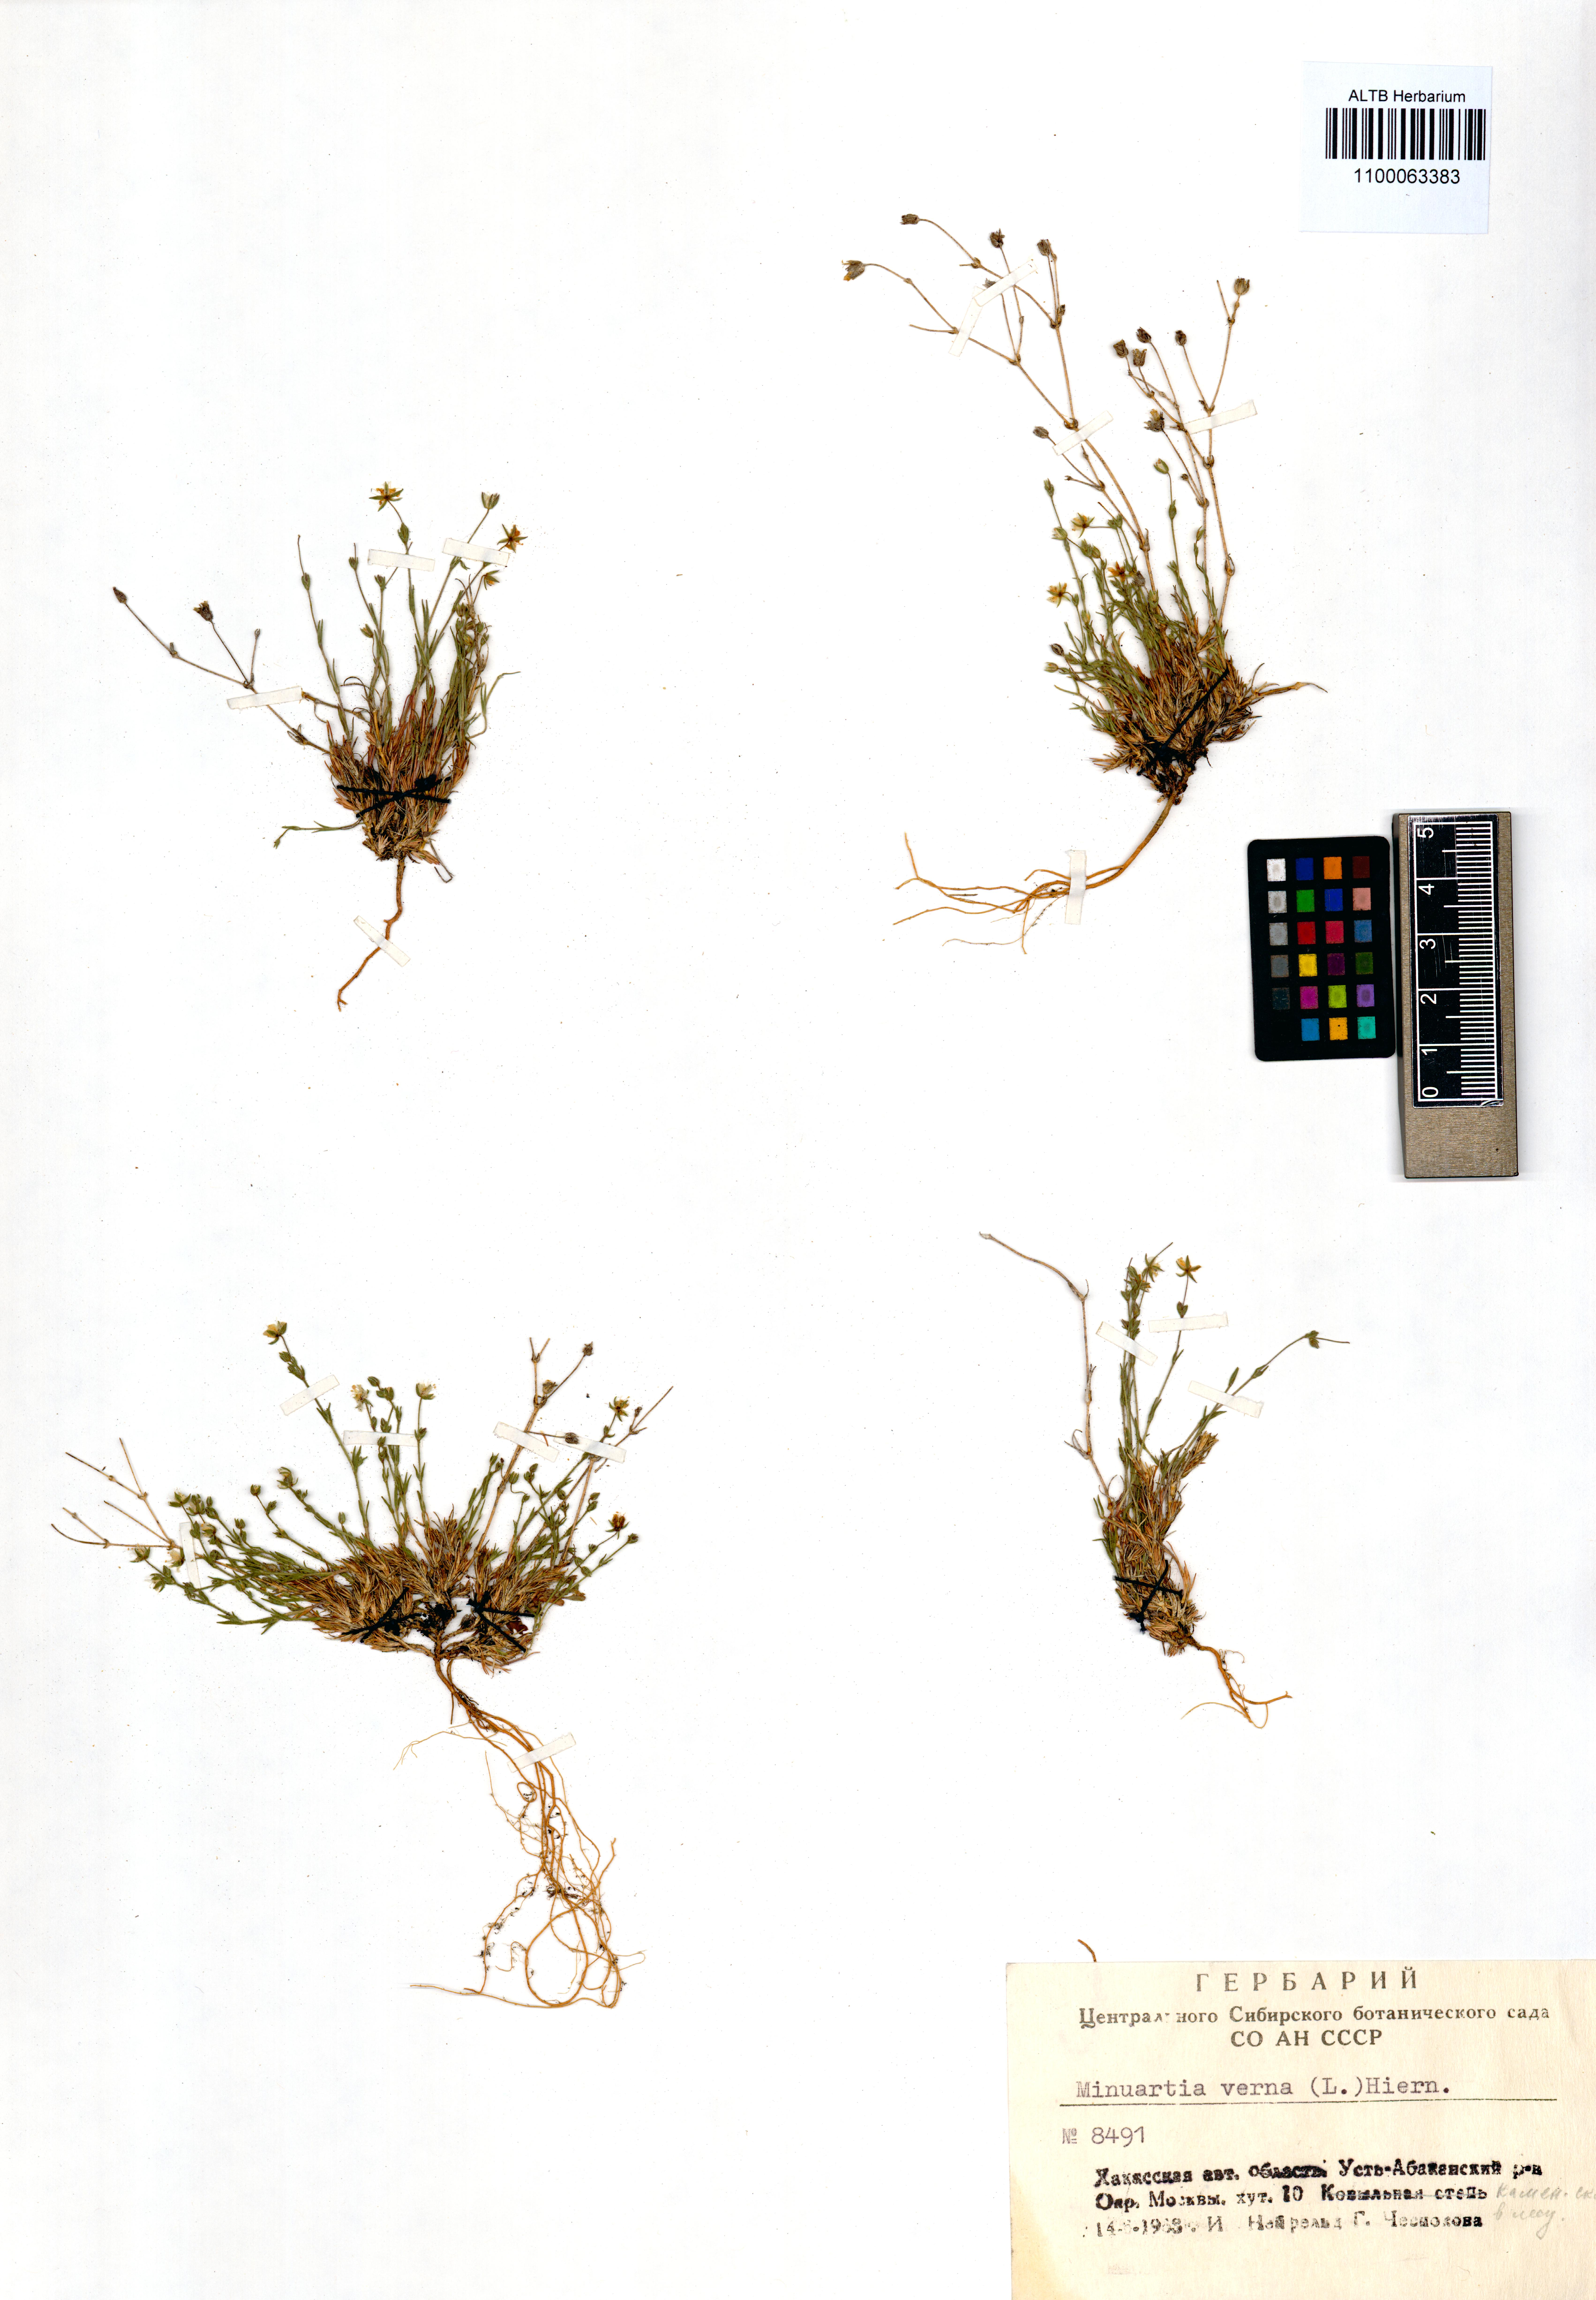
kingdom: Plantae
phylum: Tracheophyta
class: Magnoliopsida
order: Caryophyllales
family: Caryophyllaceae
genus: Sabulina
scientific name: Sabulina verna
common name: Spring sandwort
